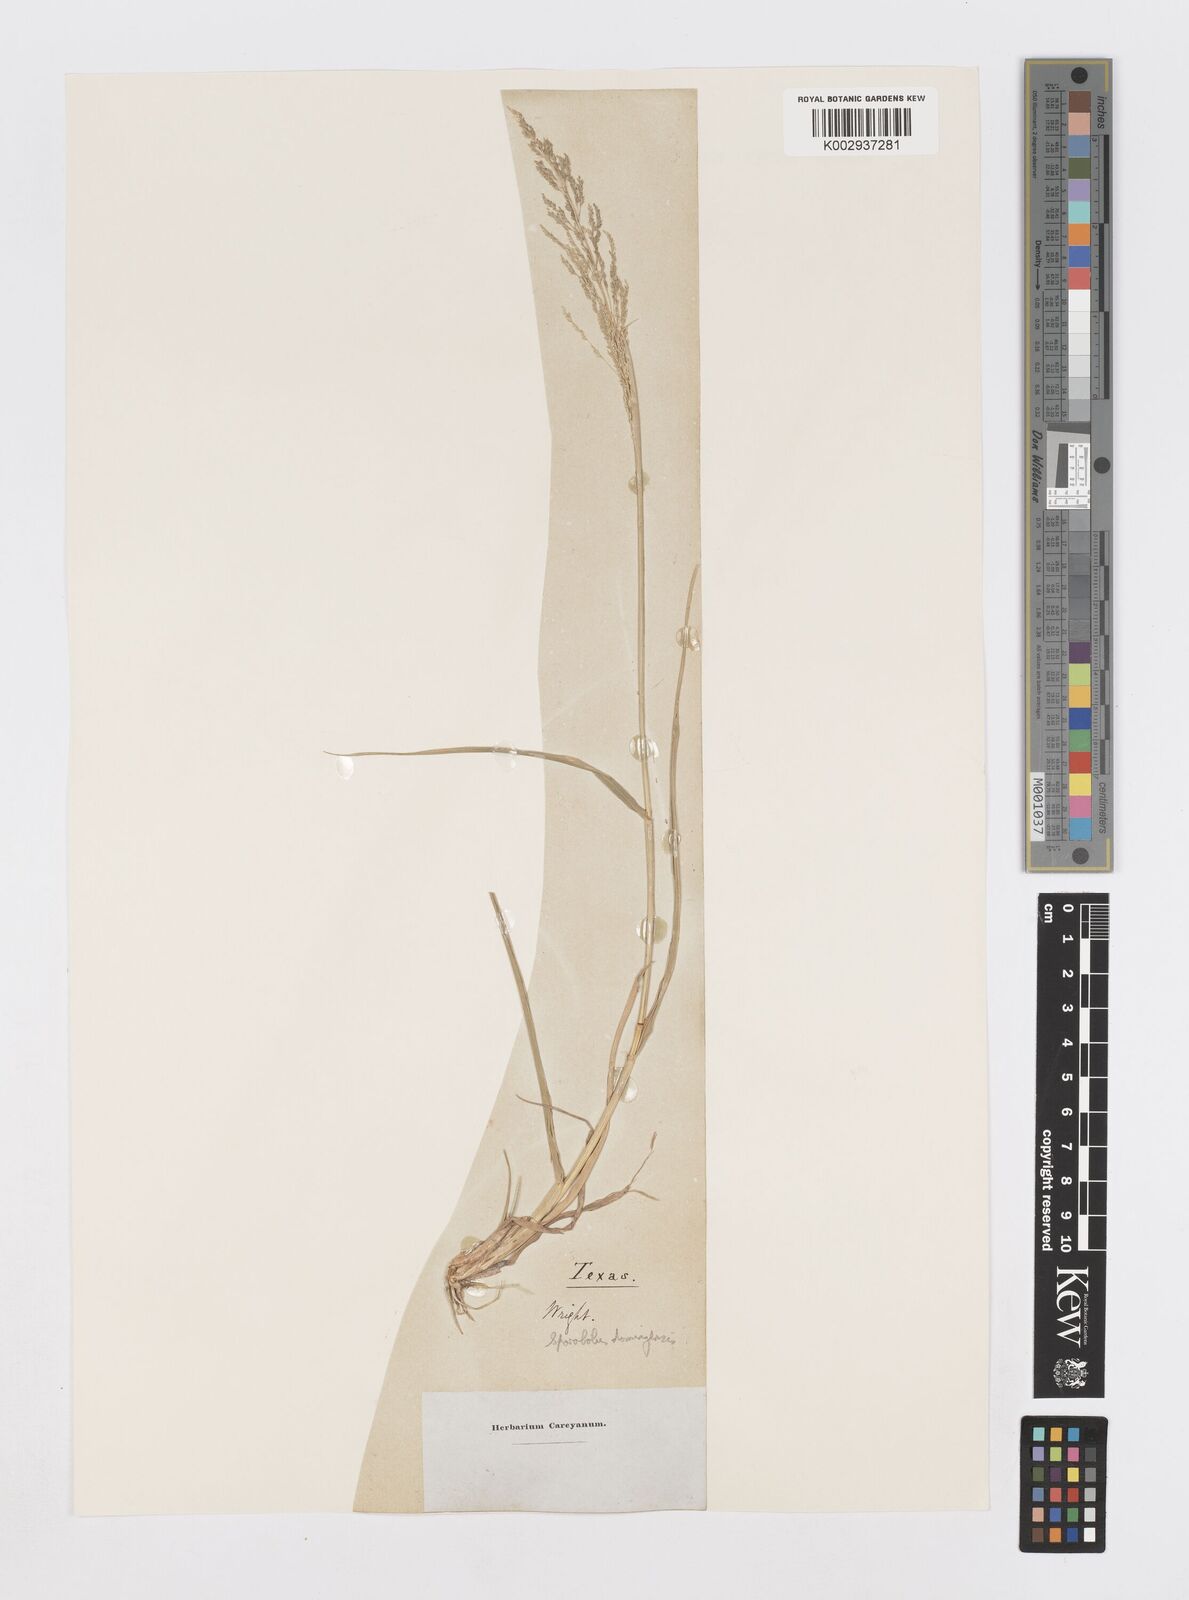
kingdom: Plantae
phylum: Tracheophyta
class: Liliopsida
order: Poales
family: Poaceae
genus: Sporobolus
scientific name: Sporobolus domingensis
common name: Coral dropseed
